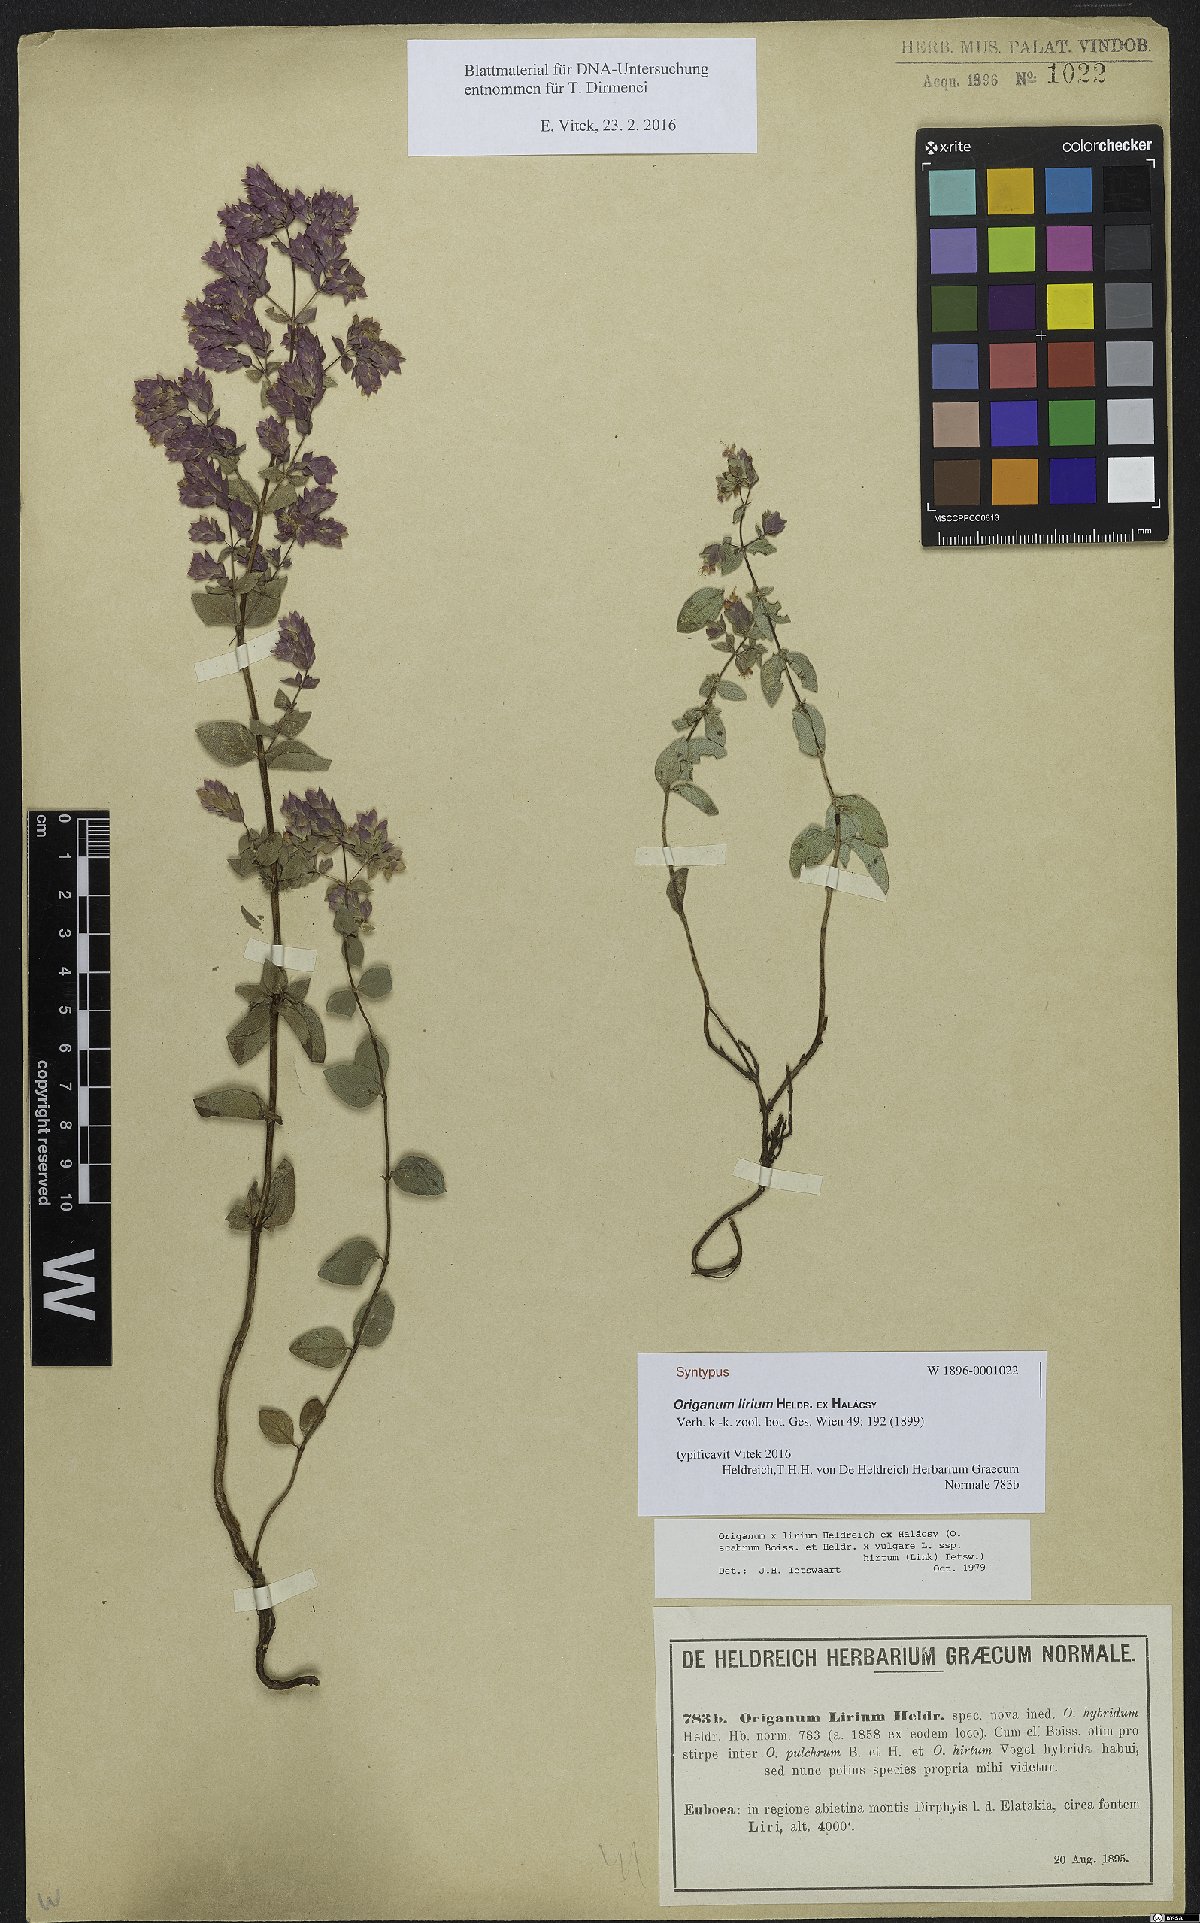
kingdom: Plantae
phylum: Tracheophyta
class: Magnoliopsida
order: Lamiales
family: Lamiaceae
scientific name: Lamiaceae
